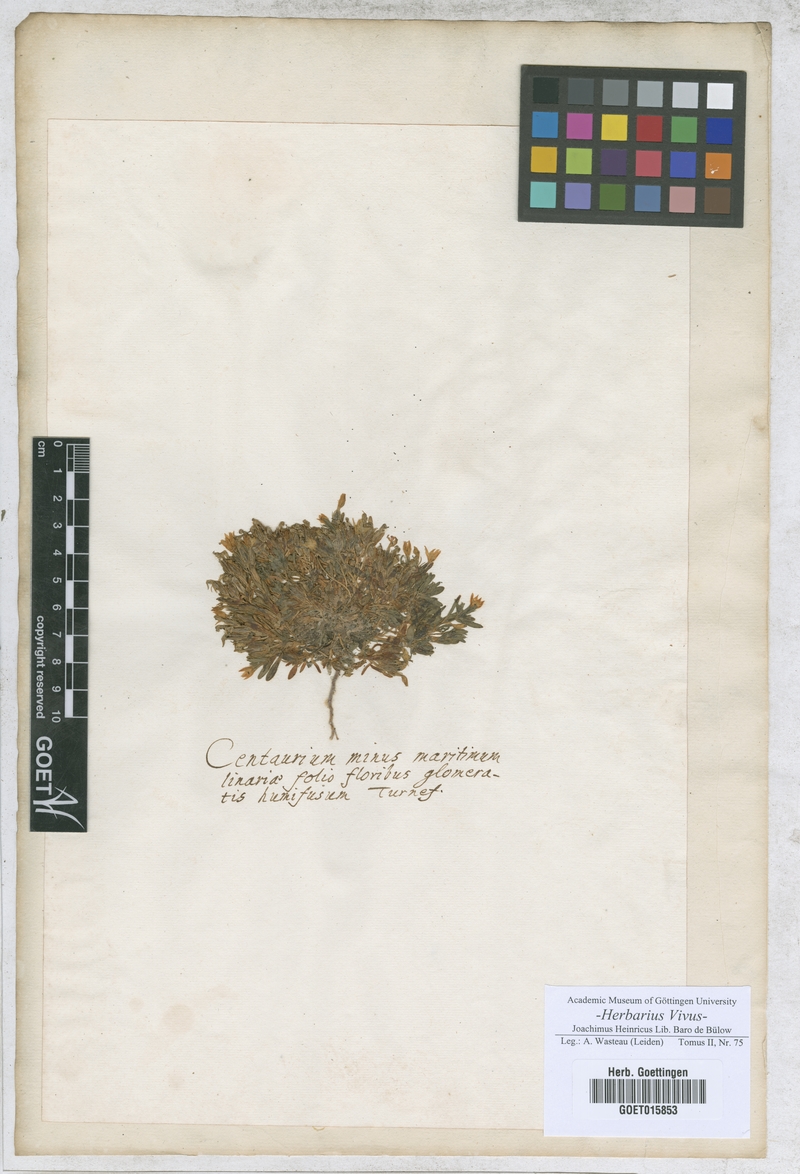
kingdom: Plantae
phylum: Tracheophyta
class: Magnoliopsida
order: Gentianales
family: Gentianaceae
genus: Centaurium
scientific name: Centaurium
